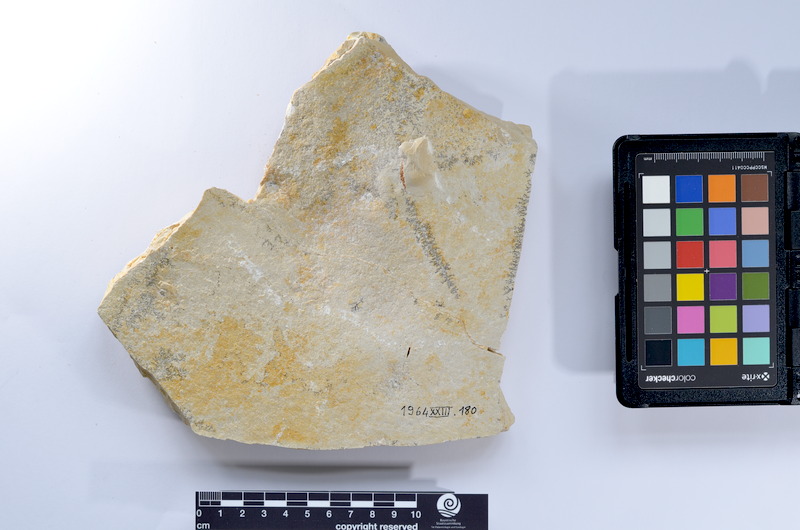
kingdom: Animalia
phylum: Chordata
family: Pholidophoridae
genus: Pholidophorus
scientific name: Pholidophorus
